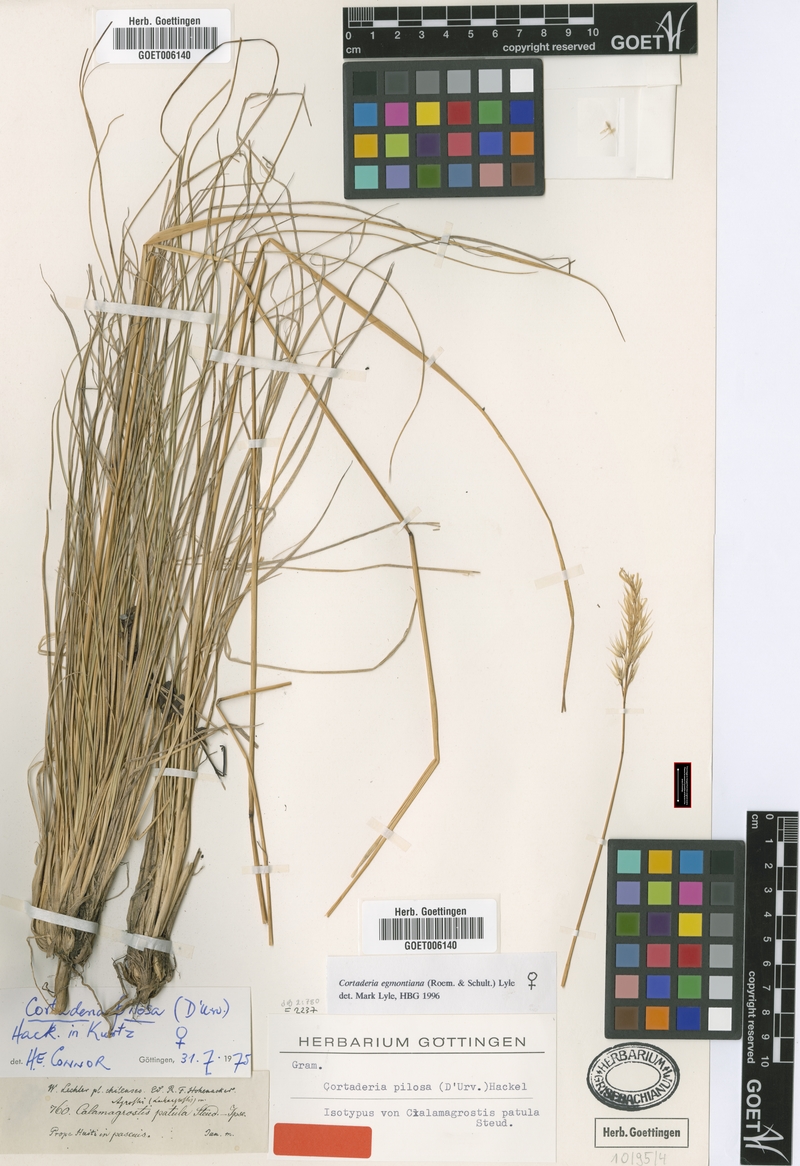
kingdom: Plantae
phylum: Tracheophyta
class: Liliopsida
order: Poales
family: Poaceae
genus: Cortaderia
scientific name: Cortaderia egmontiana
